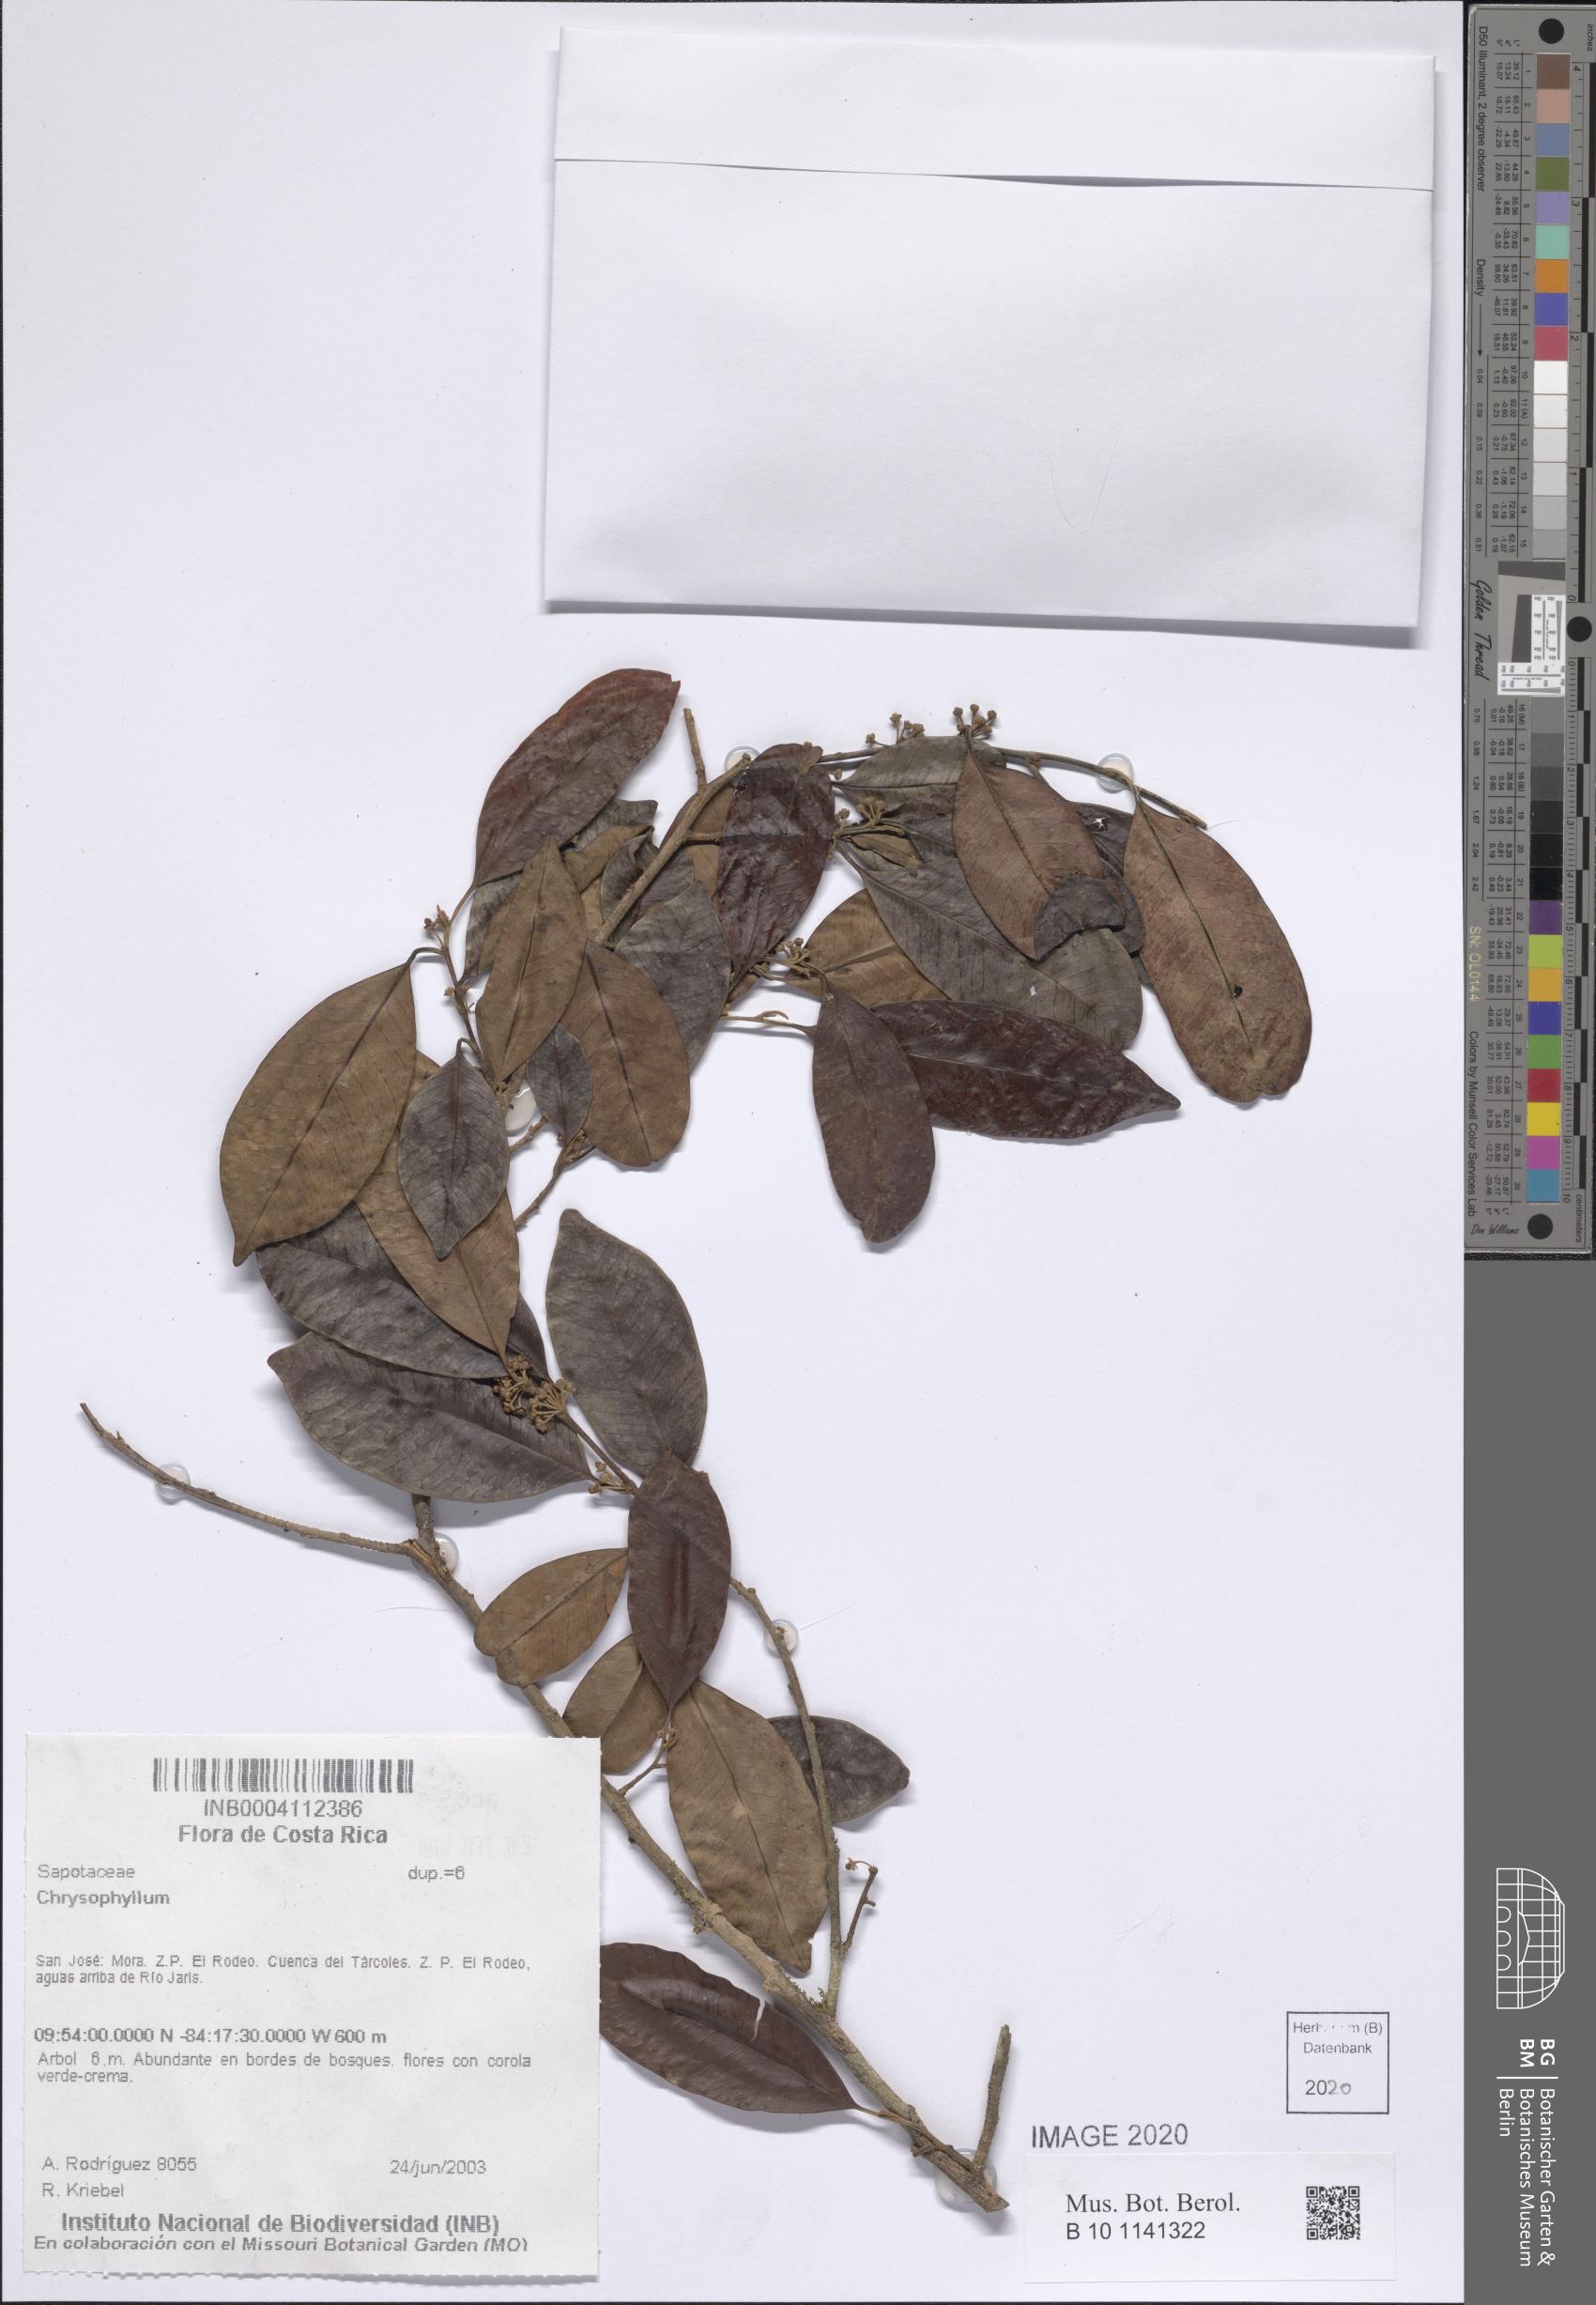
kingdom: Plantae
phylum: Tracheophyta
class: Magnoliopsida
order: Ericales
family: Sapotaceae
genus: Chrysophyllum
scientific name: Chrysophyllum
